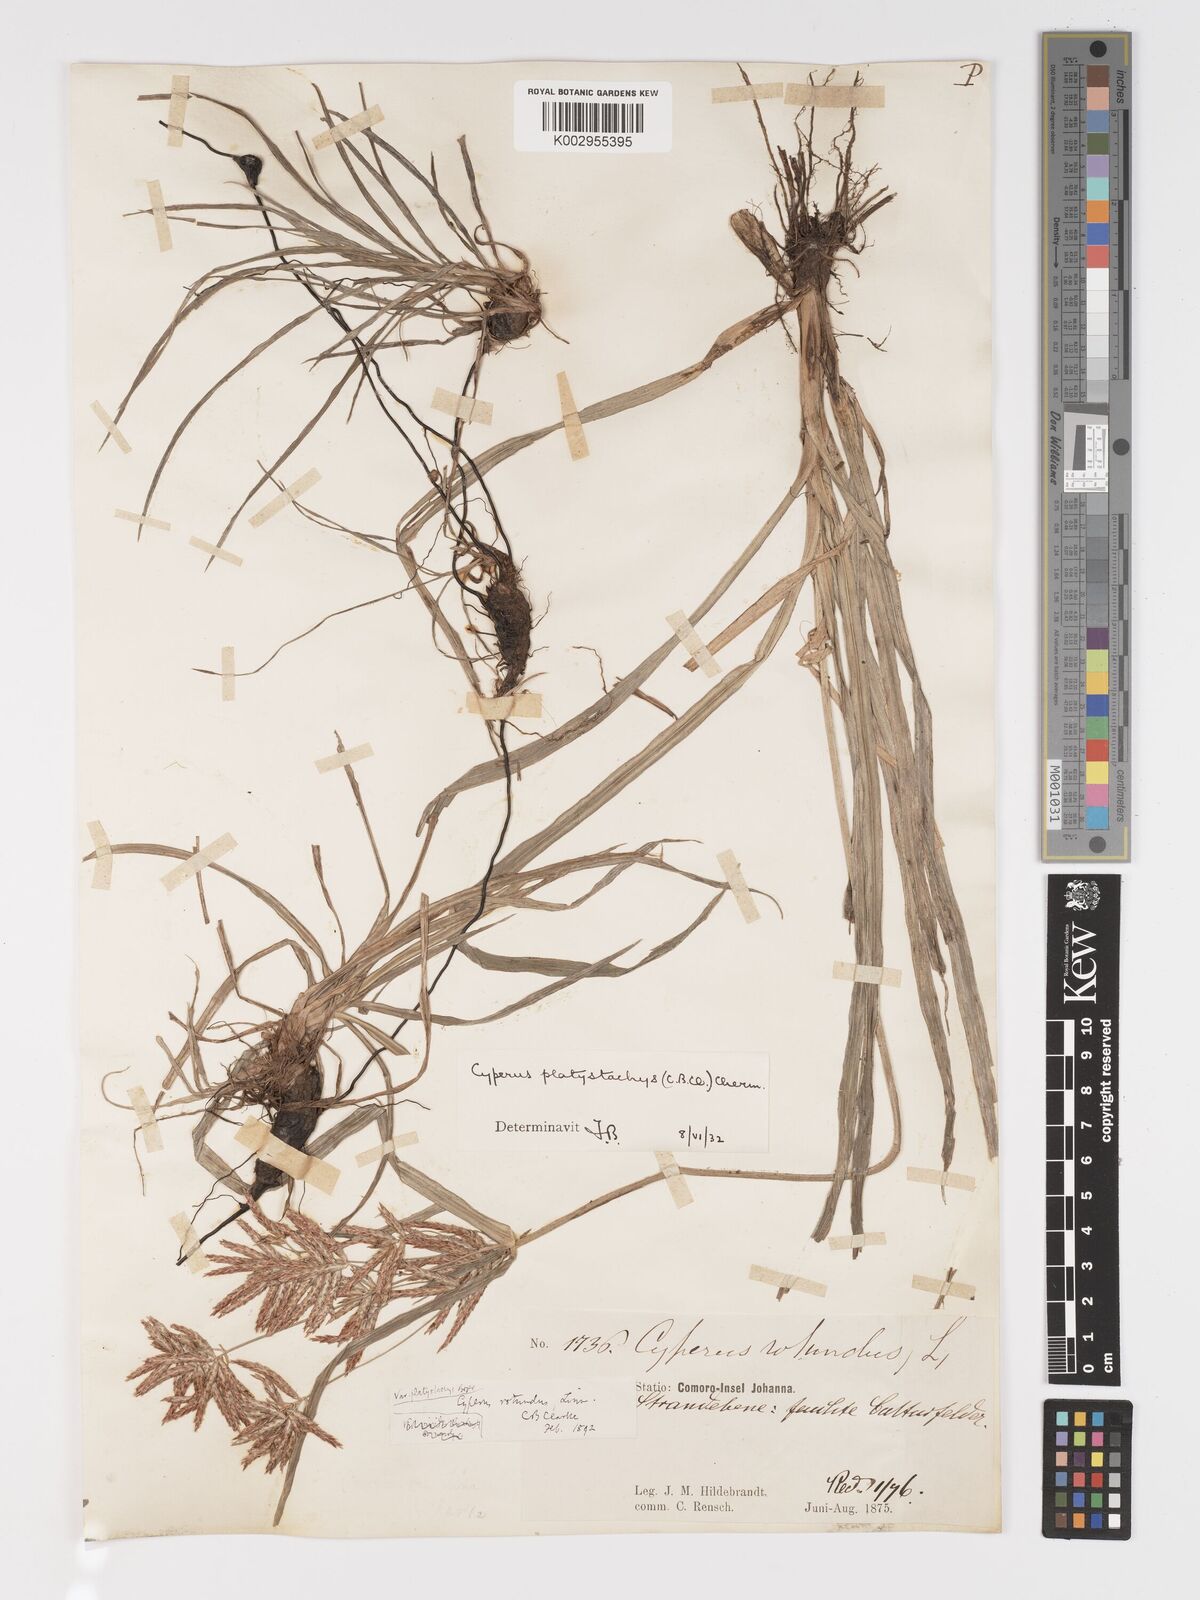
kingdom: Plantae
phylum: Tracheophyta
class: Liliopsida
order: Poales
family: Cyperaceae
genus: Cyperus
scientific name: Cyperus tuberosus
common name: Nut grass
